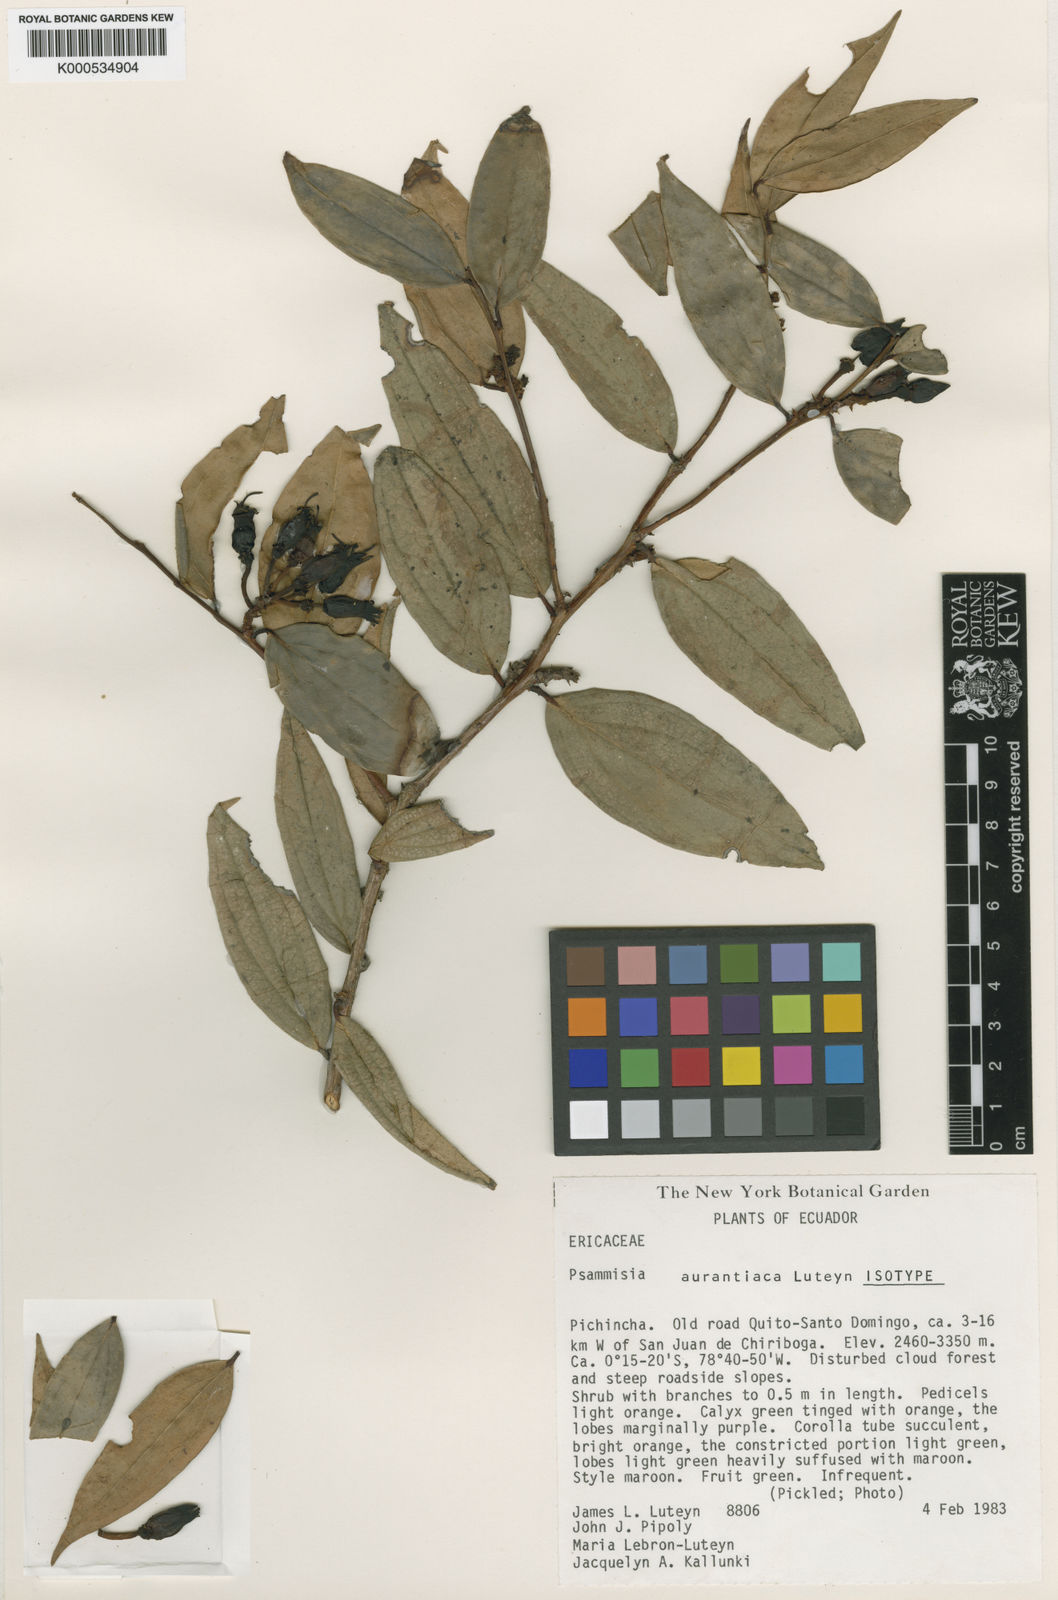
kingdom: Plantae
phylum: Tracheophyta
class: Magnoliopsida
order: Ericales
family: Ericaceae
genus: Psammisia
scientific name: Psammisia aurantiaca
